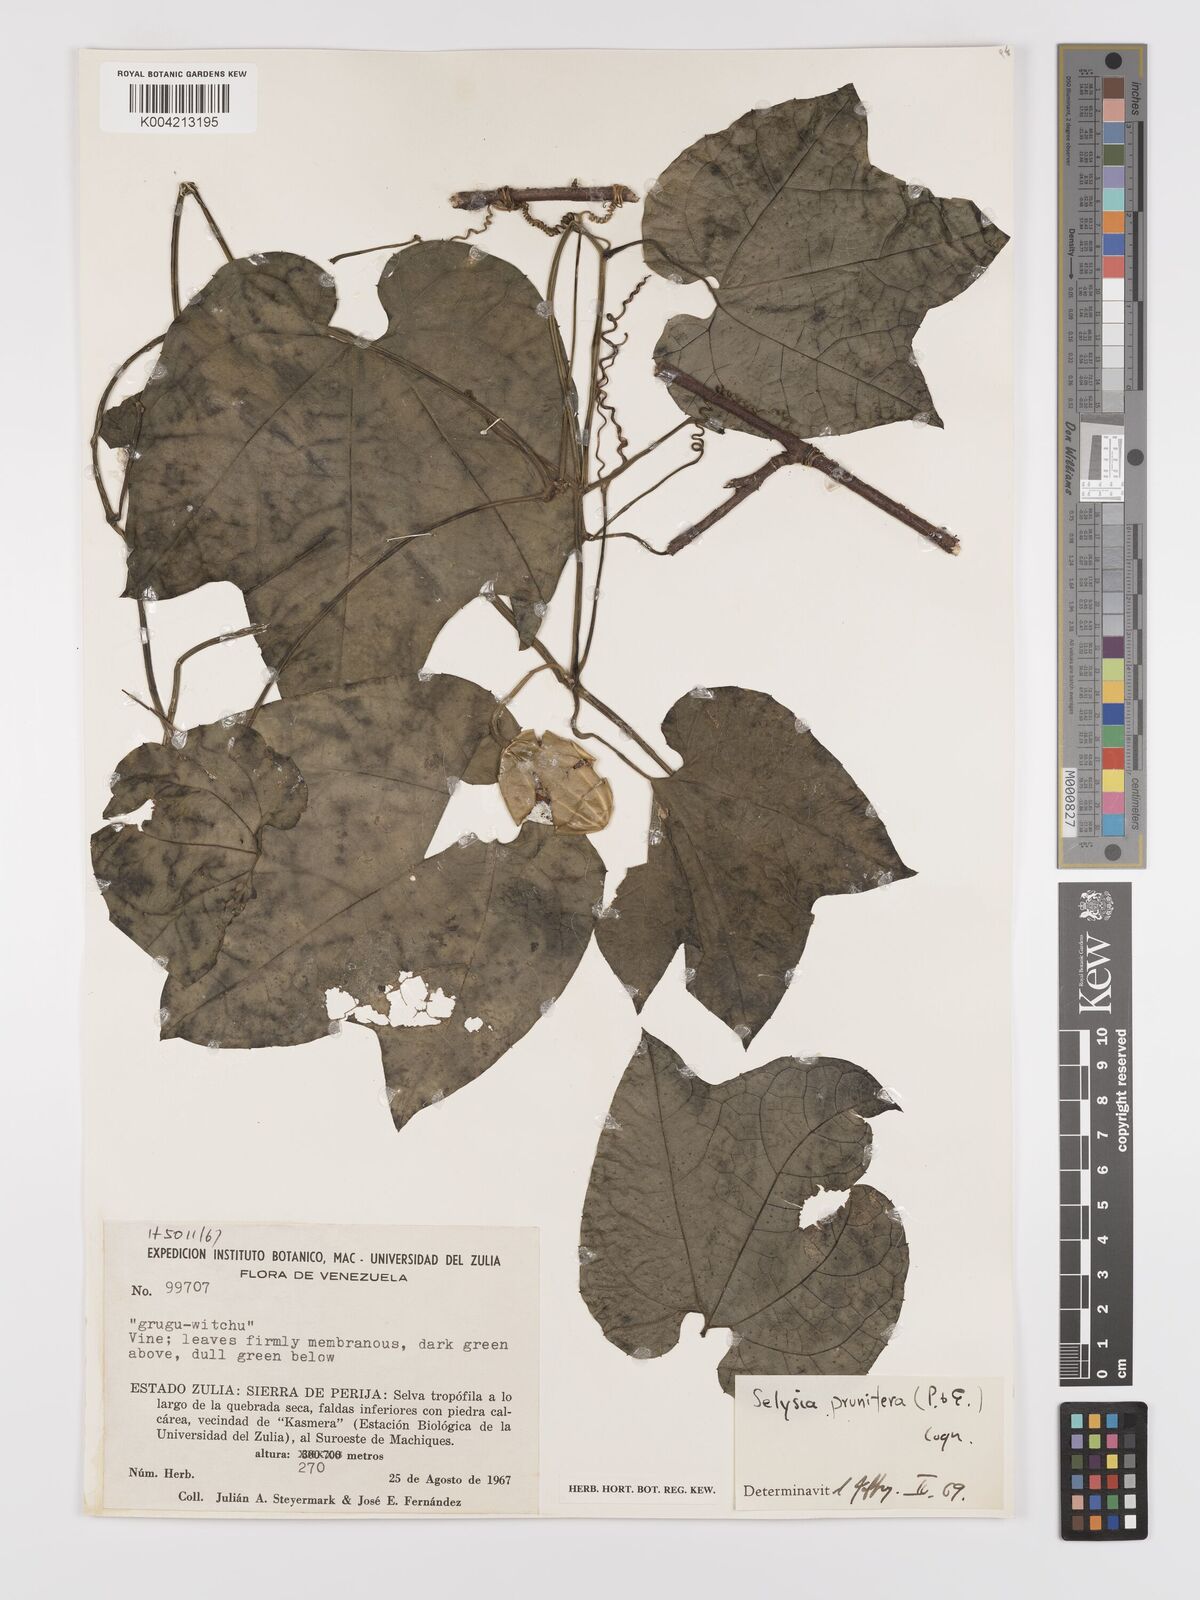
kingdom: Plantae
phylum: Tracheophyta
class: Magnoliopsida
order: Cucurbitales
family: Cucurbitaceae
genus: Cayaponia
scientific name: Cayaponia prunifera
